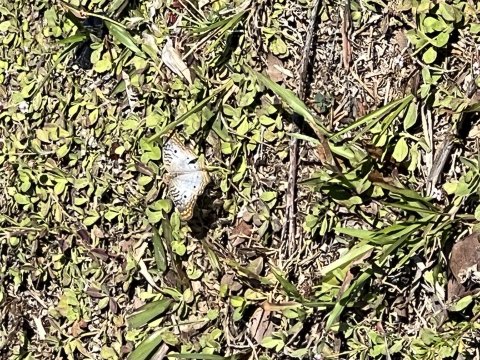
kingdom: Animalia
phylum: Arthropoda
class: Insecta
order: Lepidoptera
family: Nymphalidae
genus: Anartia
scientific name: Anartia jatrophae
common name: White Peacock
